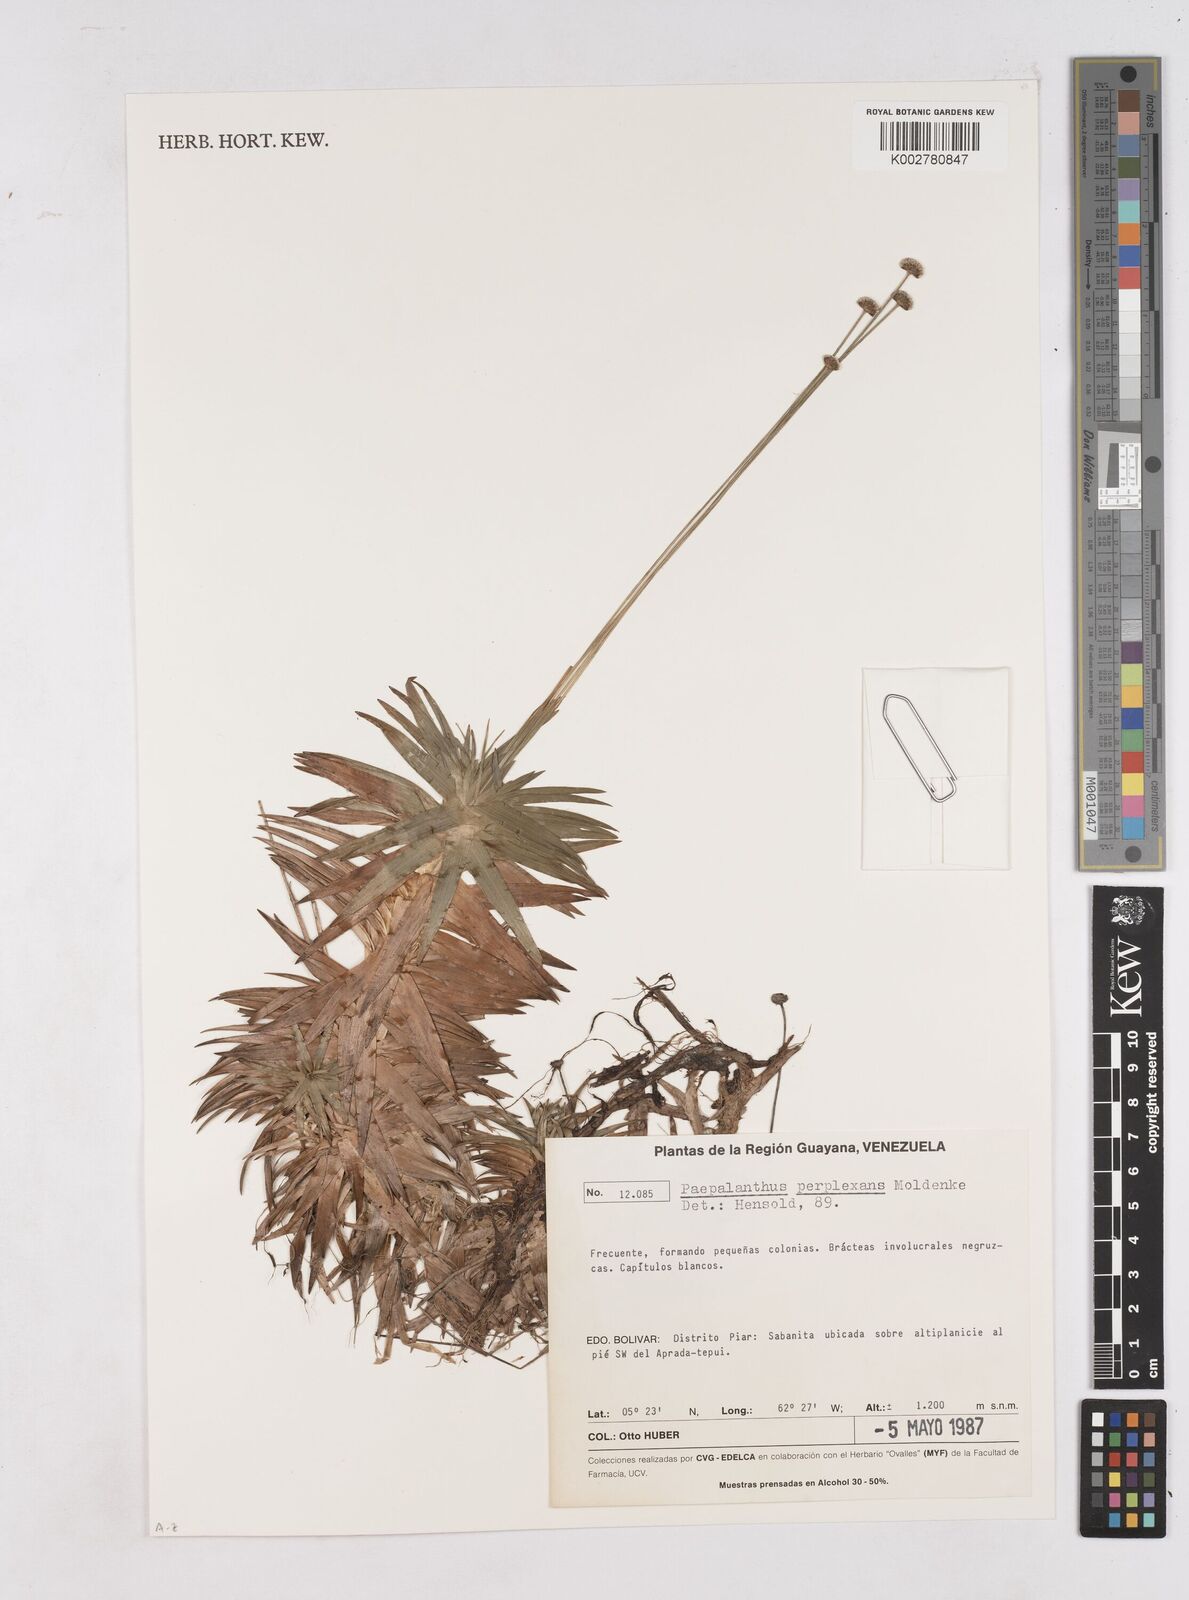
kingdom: Plantae
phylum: Tracheophyta
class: Liliopsida
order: Poales
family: Eriocaulaceae
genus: Paepalanthus
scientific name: Paepalanthus schomburgkii
